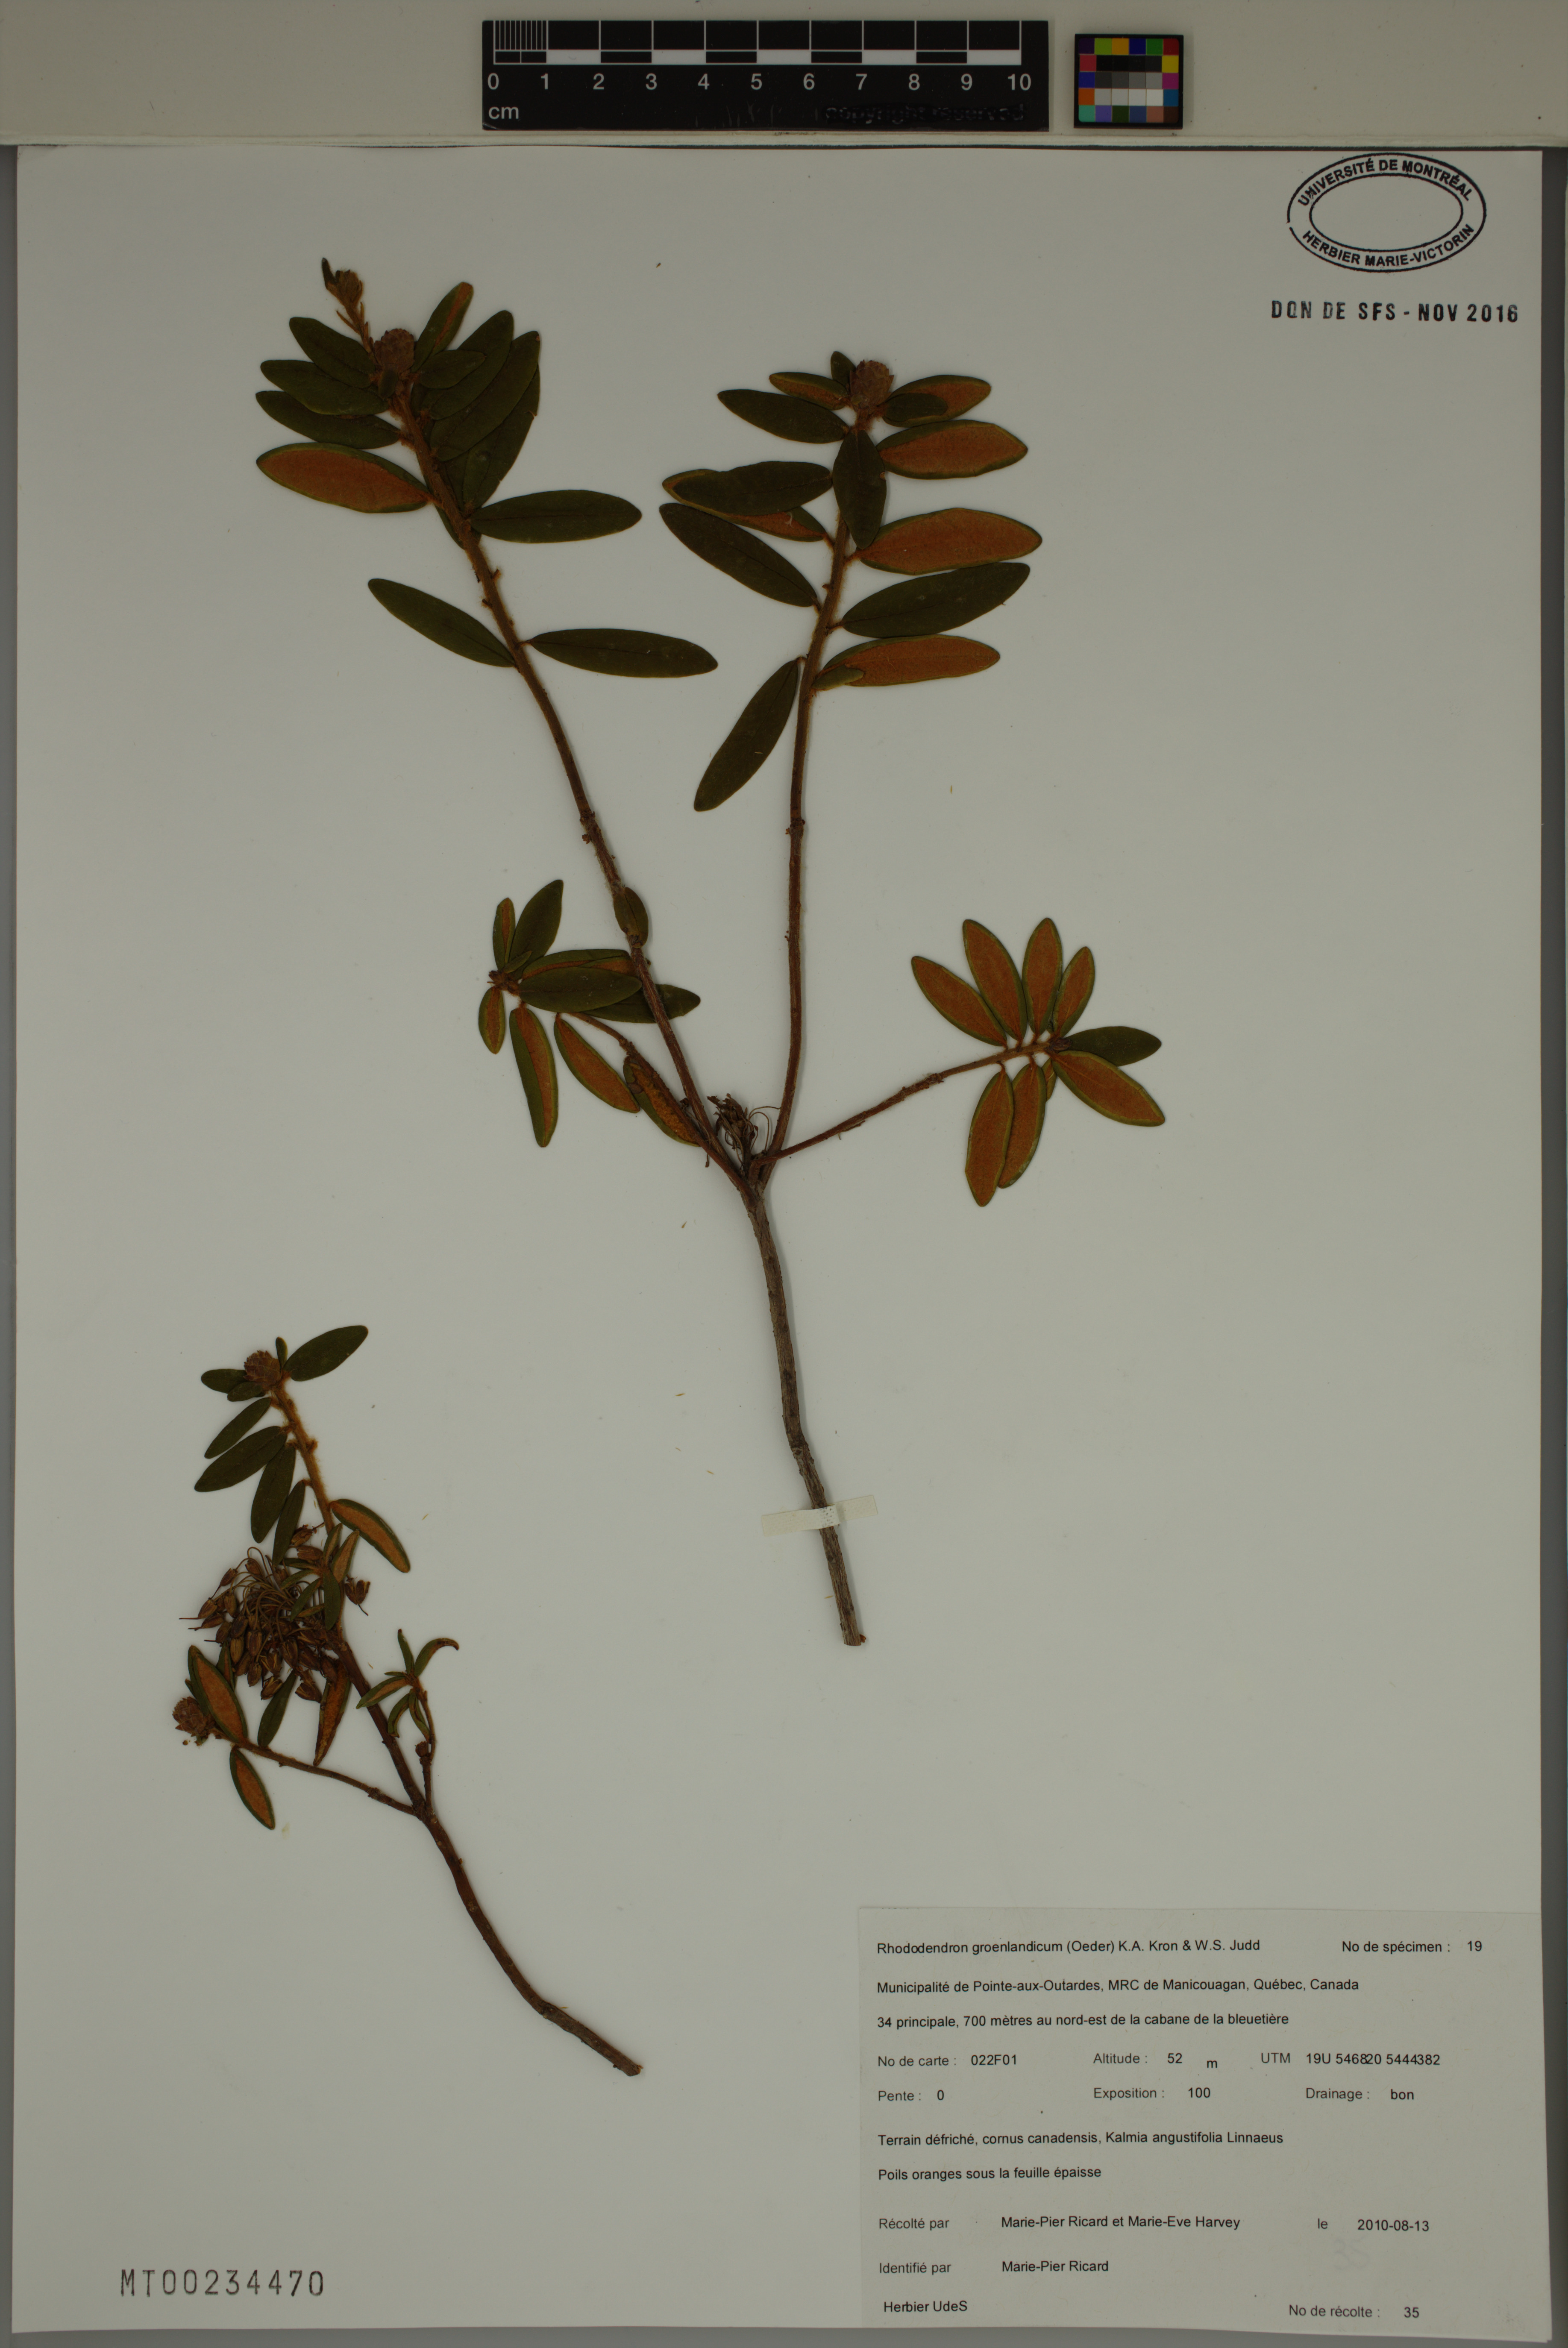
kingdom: Plantae
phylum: Tracheophyta
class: Magnoliopsida
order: Ericales
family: Ericaceae
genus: Rhododendron
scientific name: Rhododendron groenlandicum
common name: Bog labrador tea
